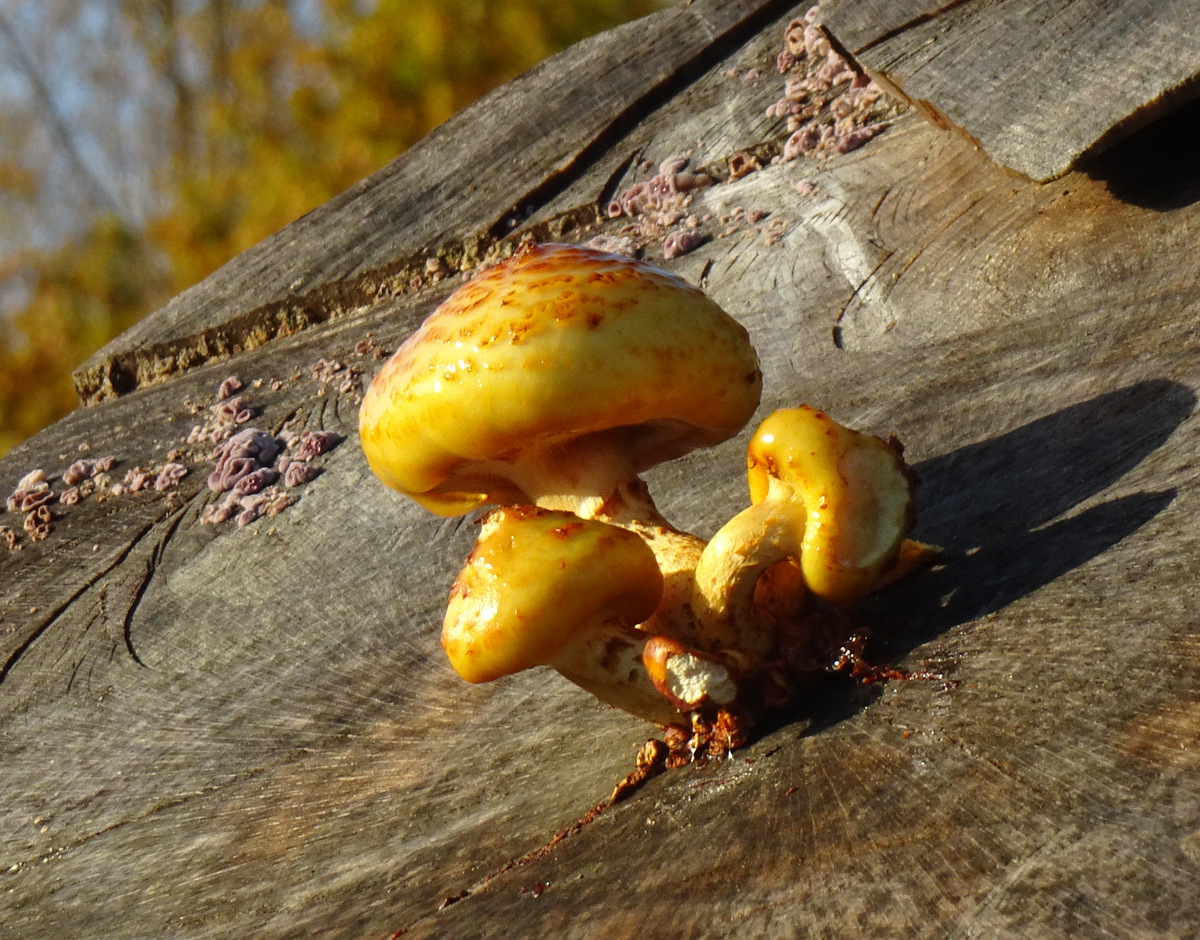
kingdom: Fungi
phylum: Basidiomycota
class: Agaricomycetes
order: Agaricales
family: Strophariaceae
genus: Pholiota
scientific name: Pholiota adiposa
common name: højtsiddende skælhat
